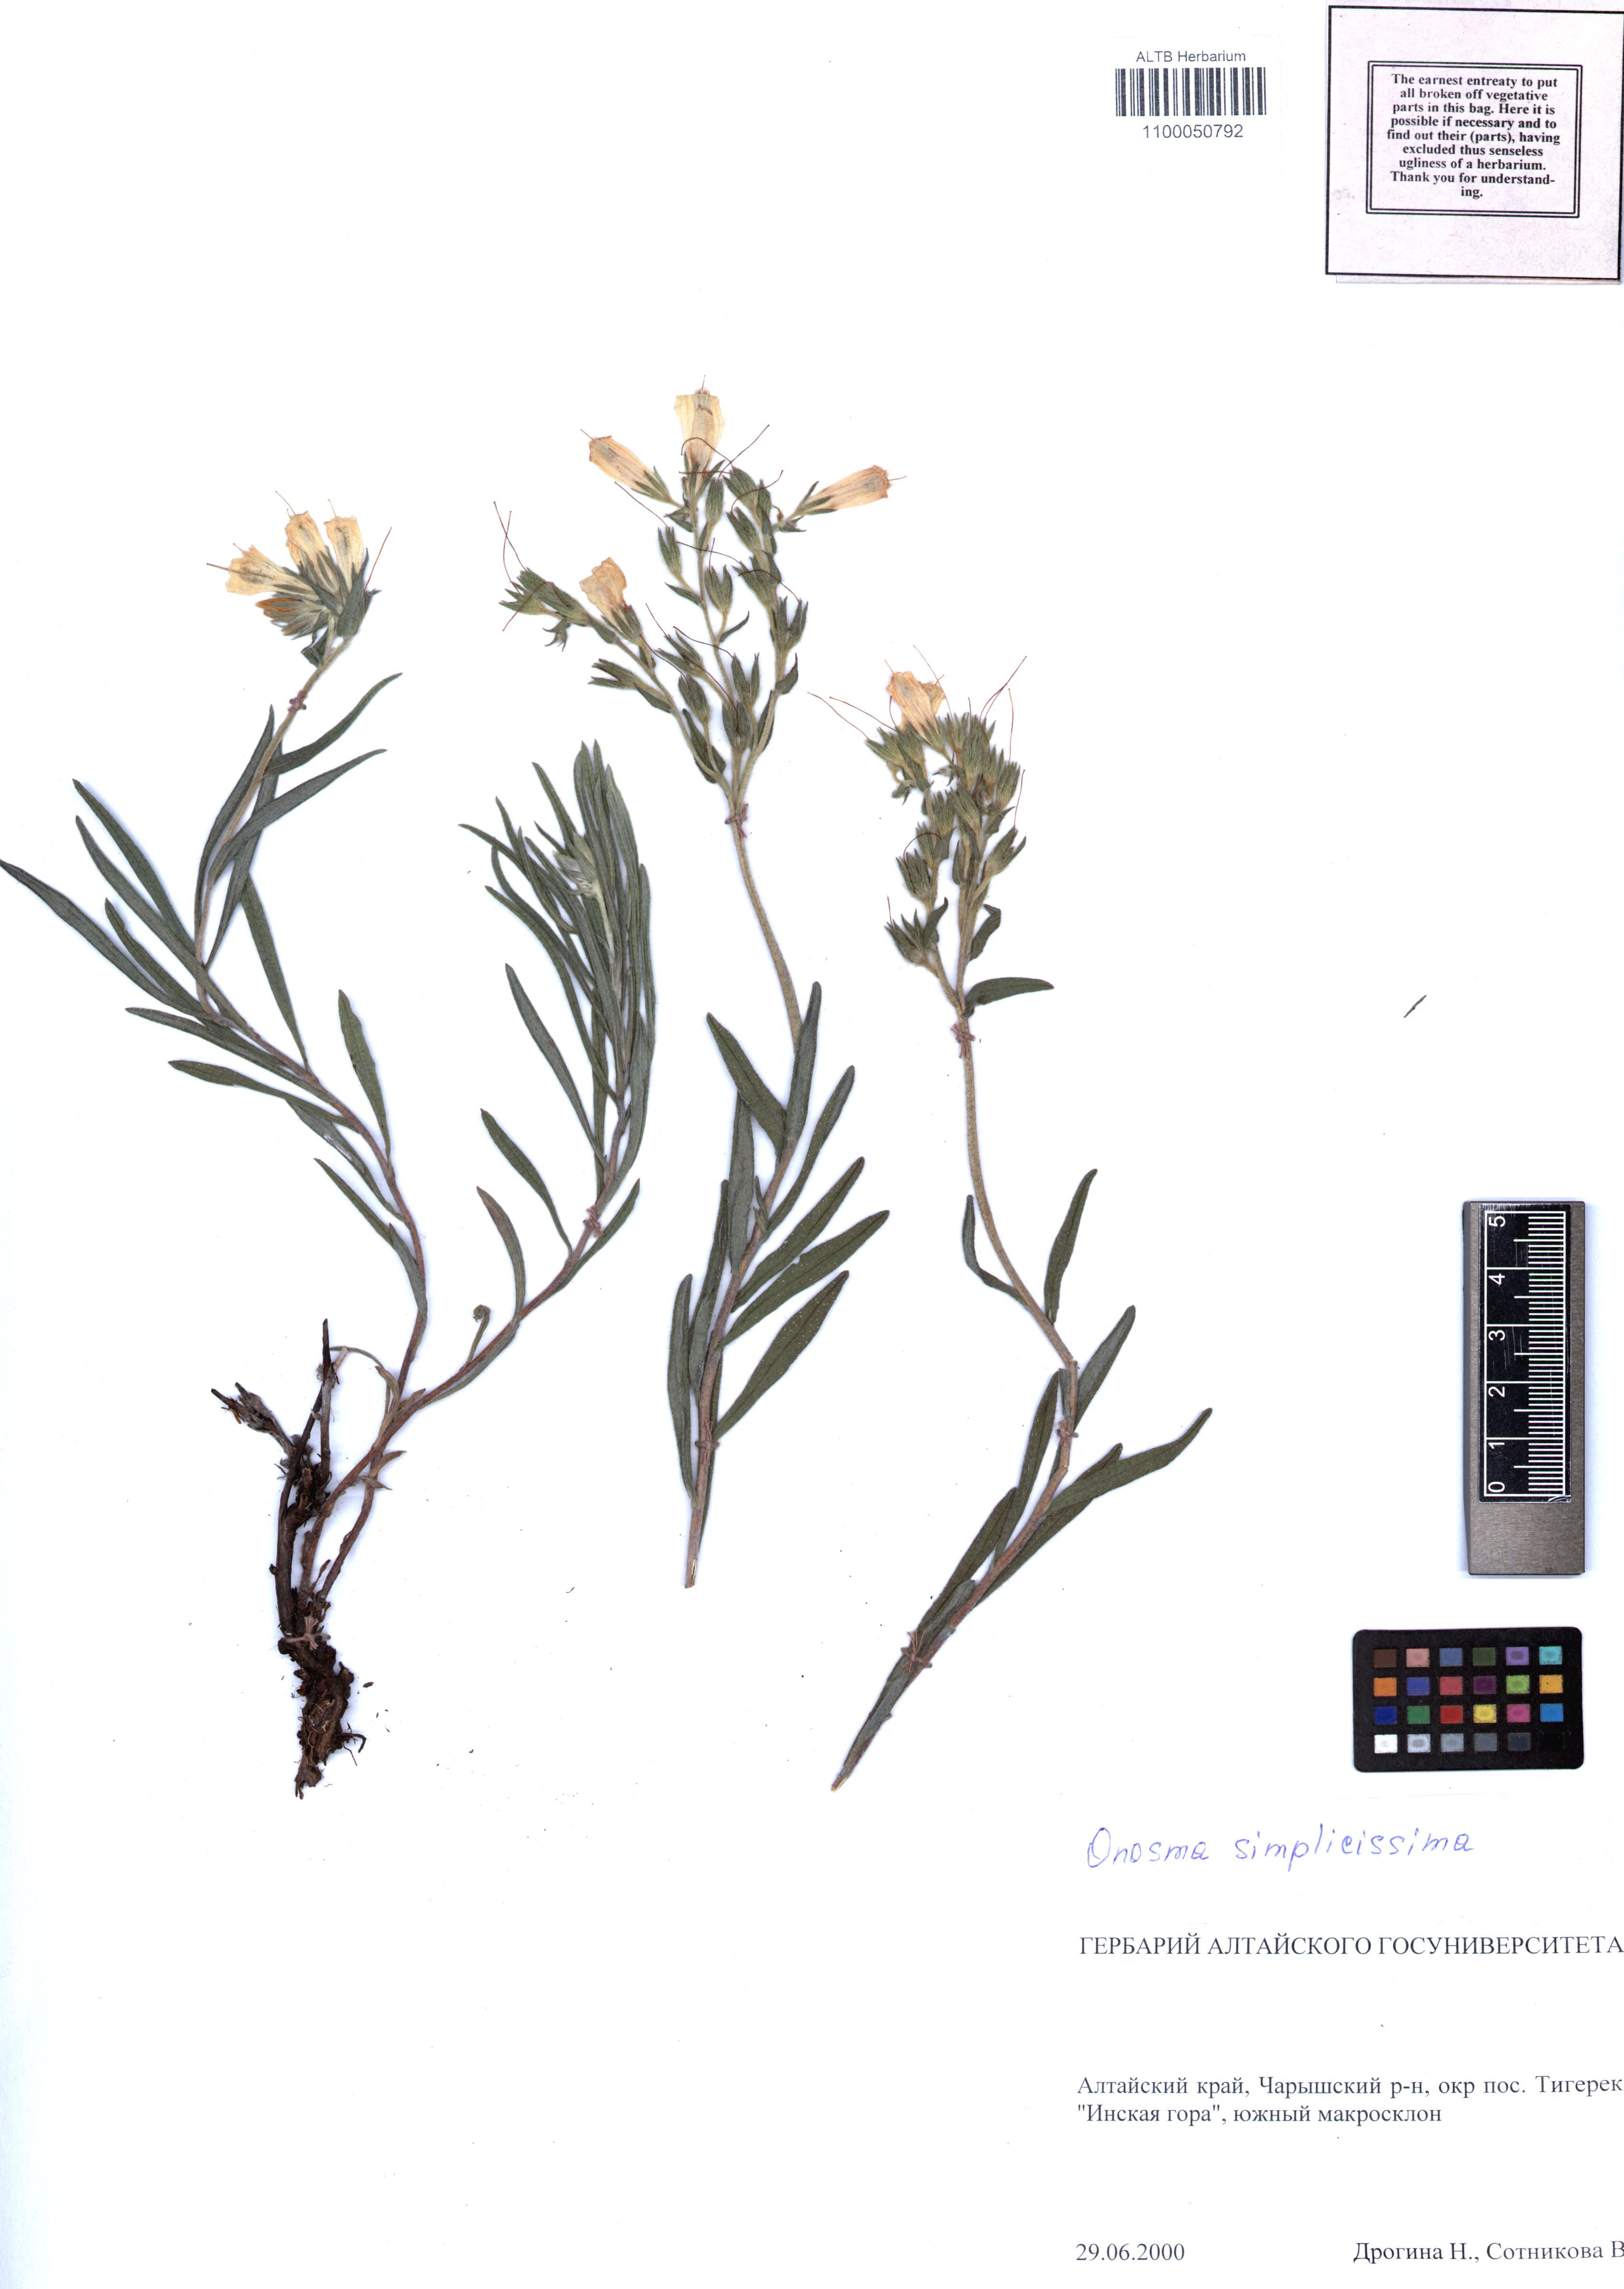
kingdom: Plantae
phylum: Tracheophyta
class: Magnoliopsida
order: Boraginales
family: Boraginaceae
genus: Onosma
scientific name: Onosma simplicissima
